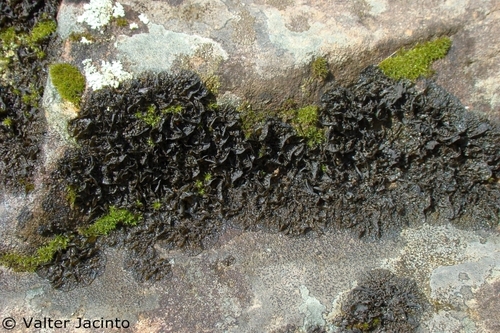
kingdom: Fungi
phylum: Ascomycota
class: Lecanoromycetes
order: Peltigerales
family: Collemataceae
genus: Collema
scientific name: Collema ryssoleum
